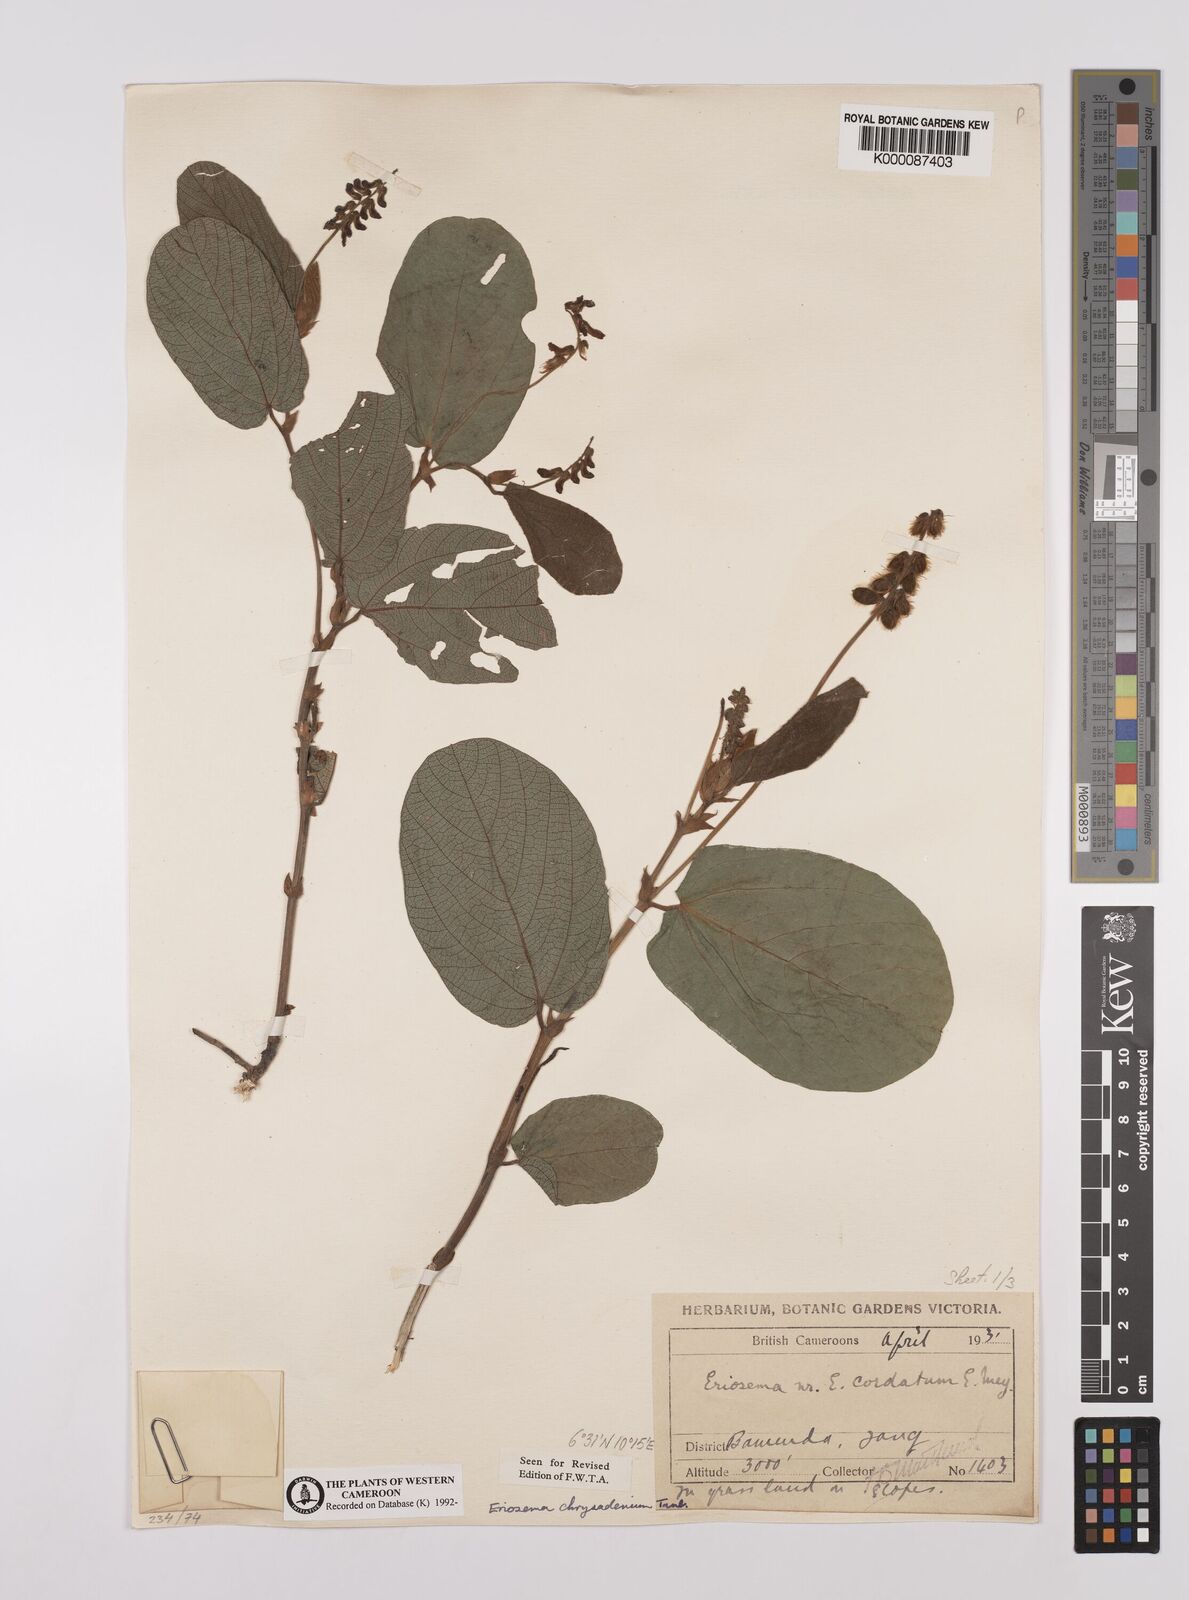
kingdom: Plantae
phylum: Tracheophyta
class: Magnoliopsida
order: Fabales
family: Fabaceae
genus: Eriosema
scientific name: Eriosema chrysadenium
